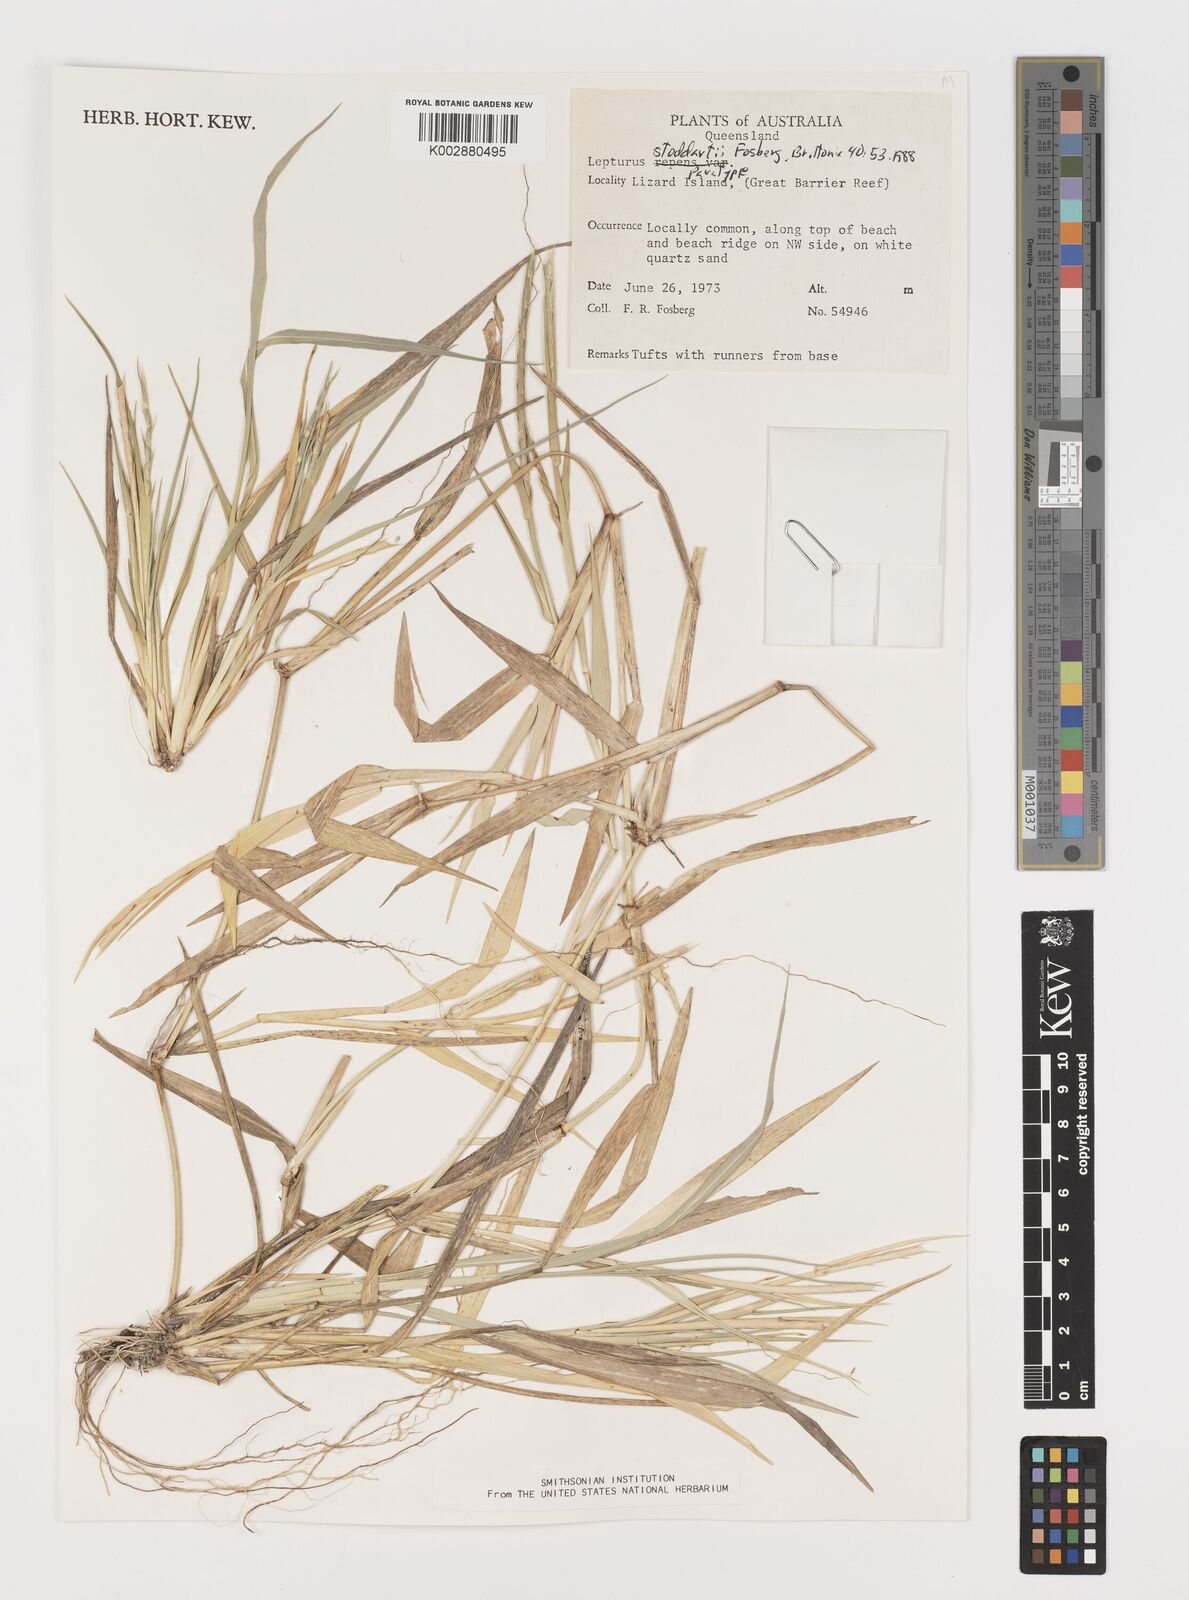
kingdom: Plantae
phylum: Tracheophyta
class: Liliopsida
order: Poales
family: Poaceae
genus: Lepturus
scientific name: Lepturus repens
